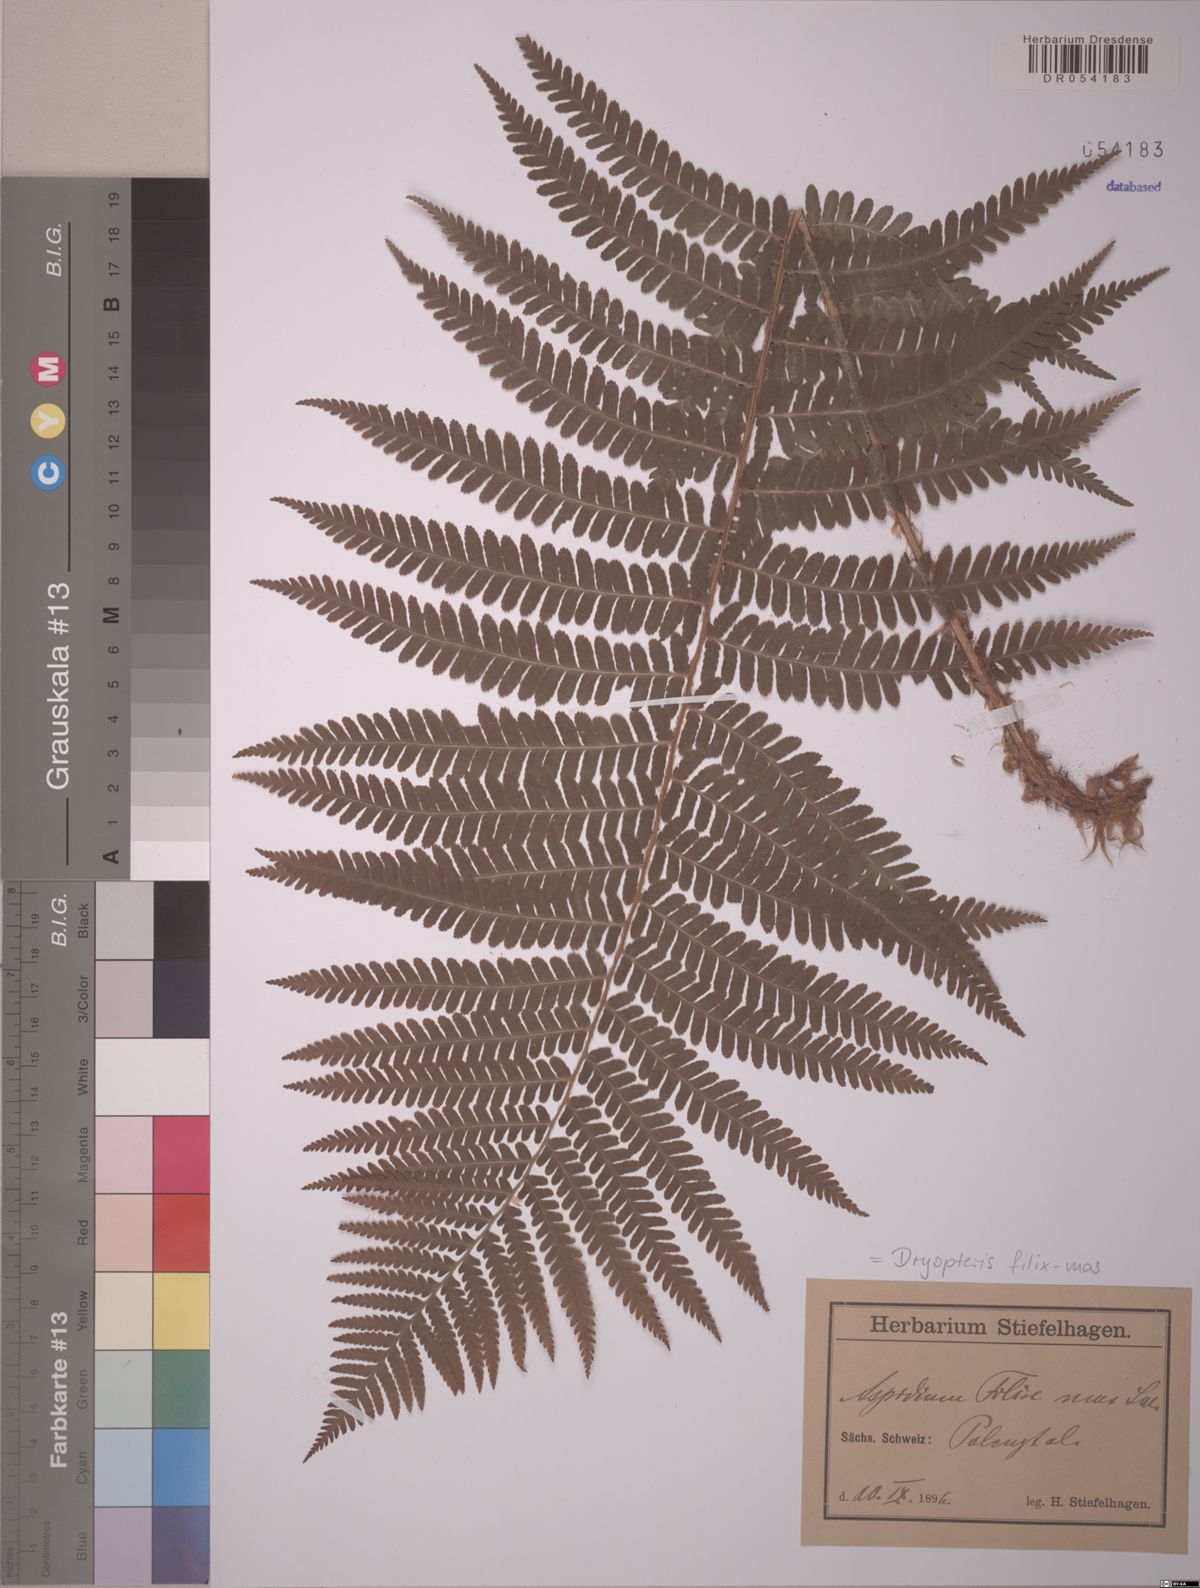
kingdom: Plantae
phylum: Tracheophyta
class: Polypodiopsida
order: Polypodiales
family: Dryopteridaceae
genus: Dryopteris
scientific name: Dryopteris filix-mas
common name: Male fern
